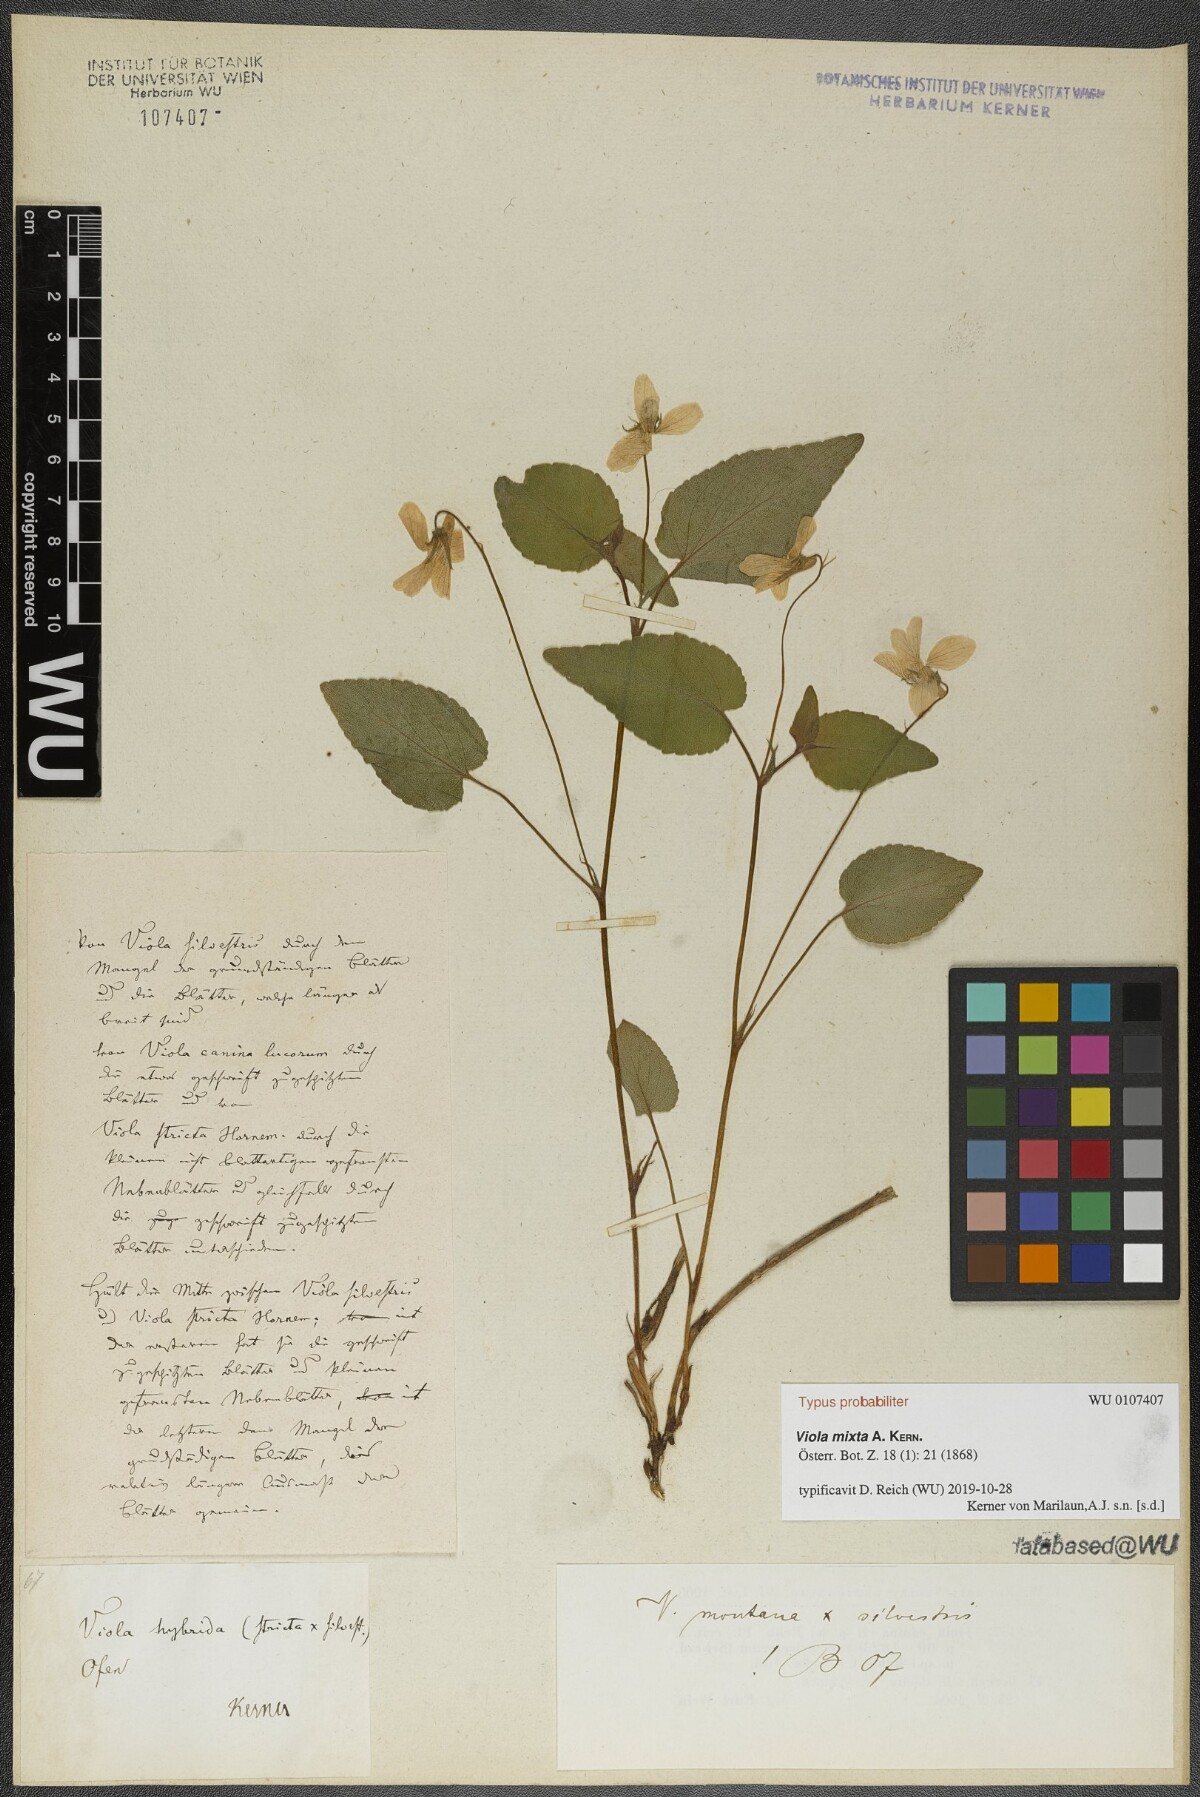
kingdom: Plantae
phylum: Tracheophyta
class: Magnoliopsida
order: Malpighiales
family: Violaceae
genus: Viola
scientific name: Viola mixta
